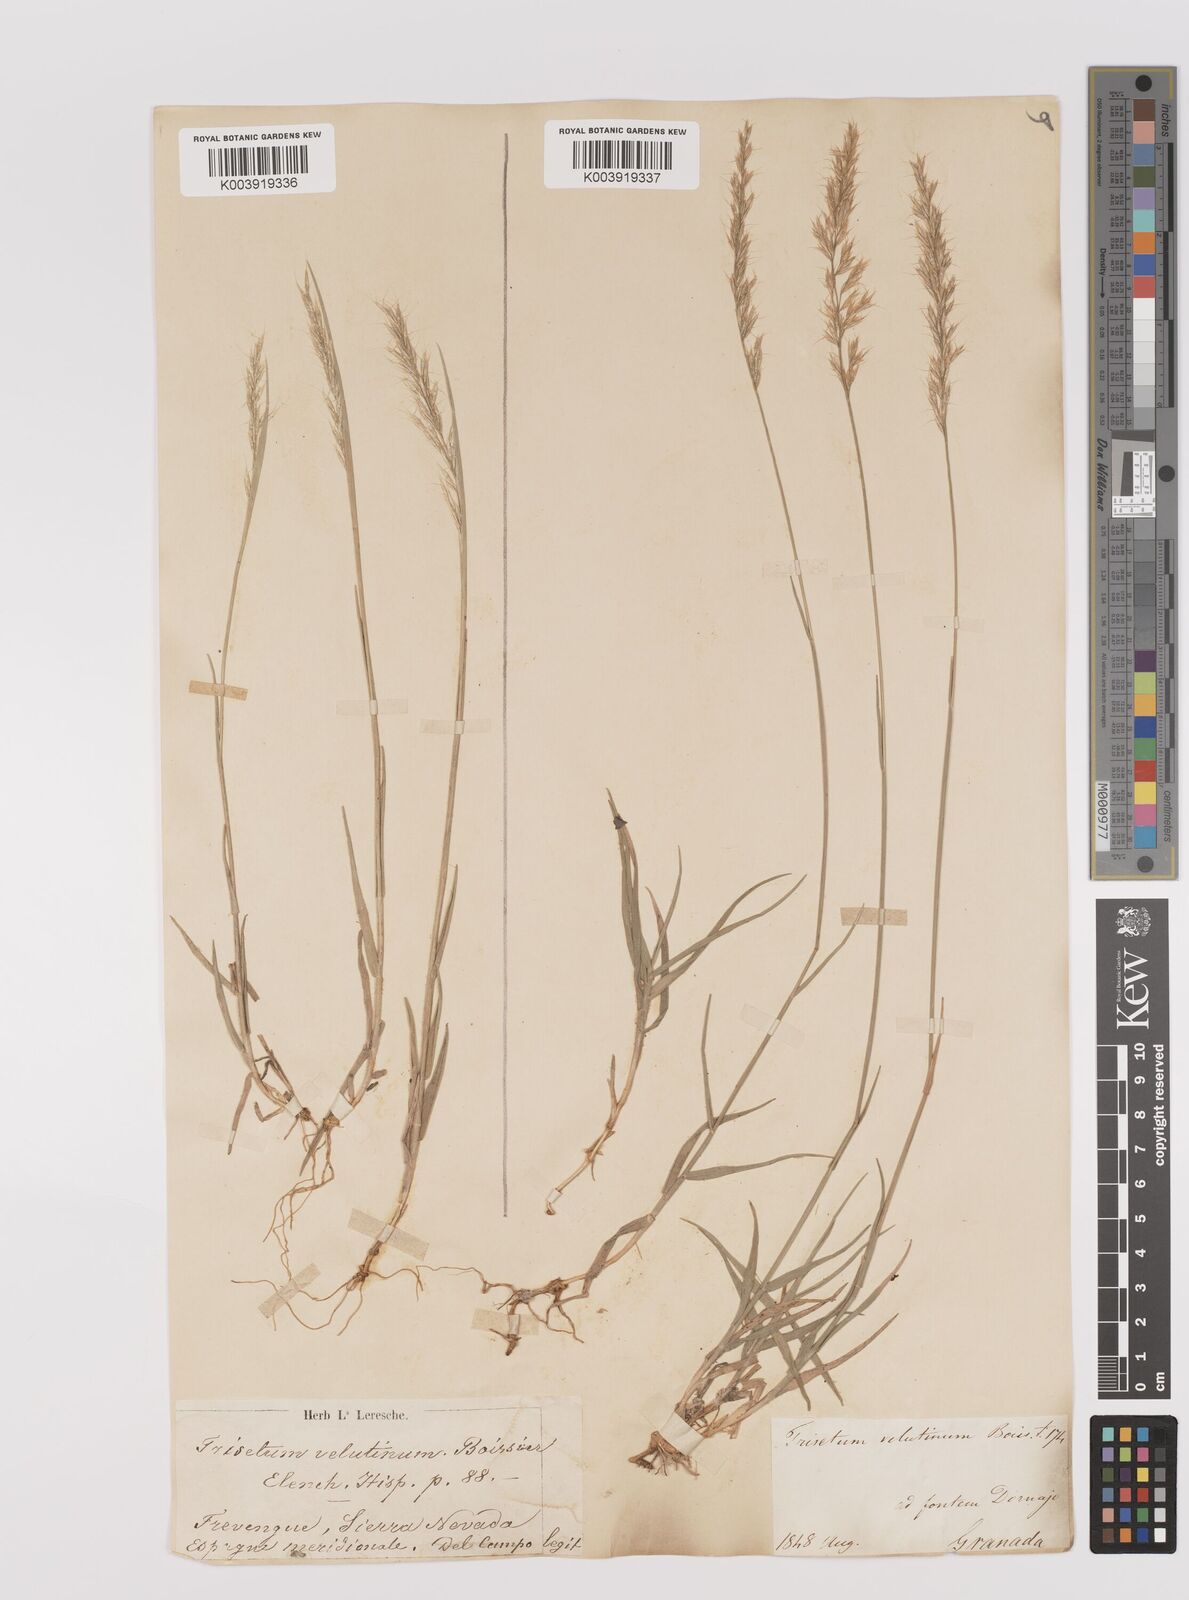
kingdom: Plantae
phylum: Tracheophyta
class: Liliopsida
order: Poales
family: Poaceae
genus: Trisetum
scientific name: Trisetum velutinum
